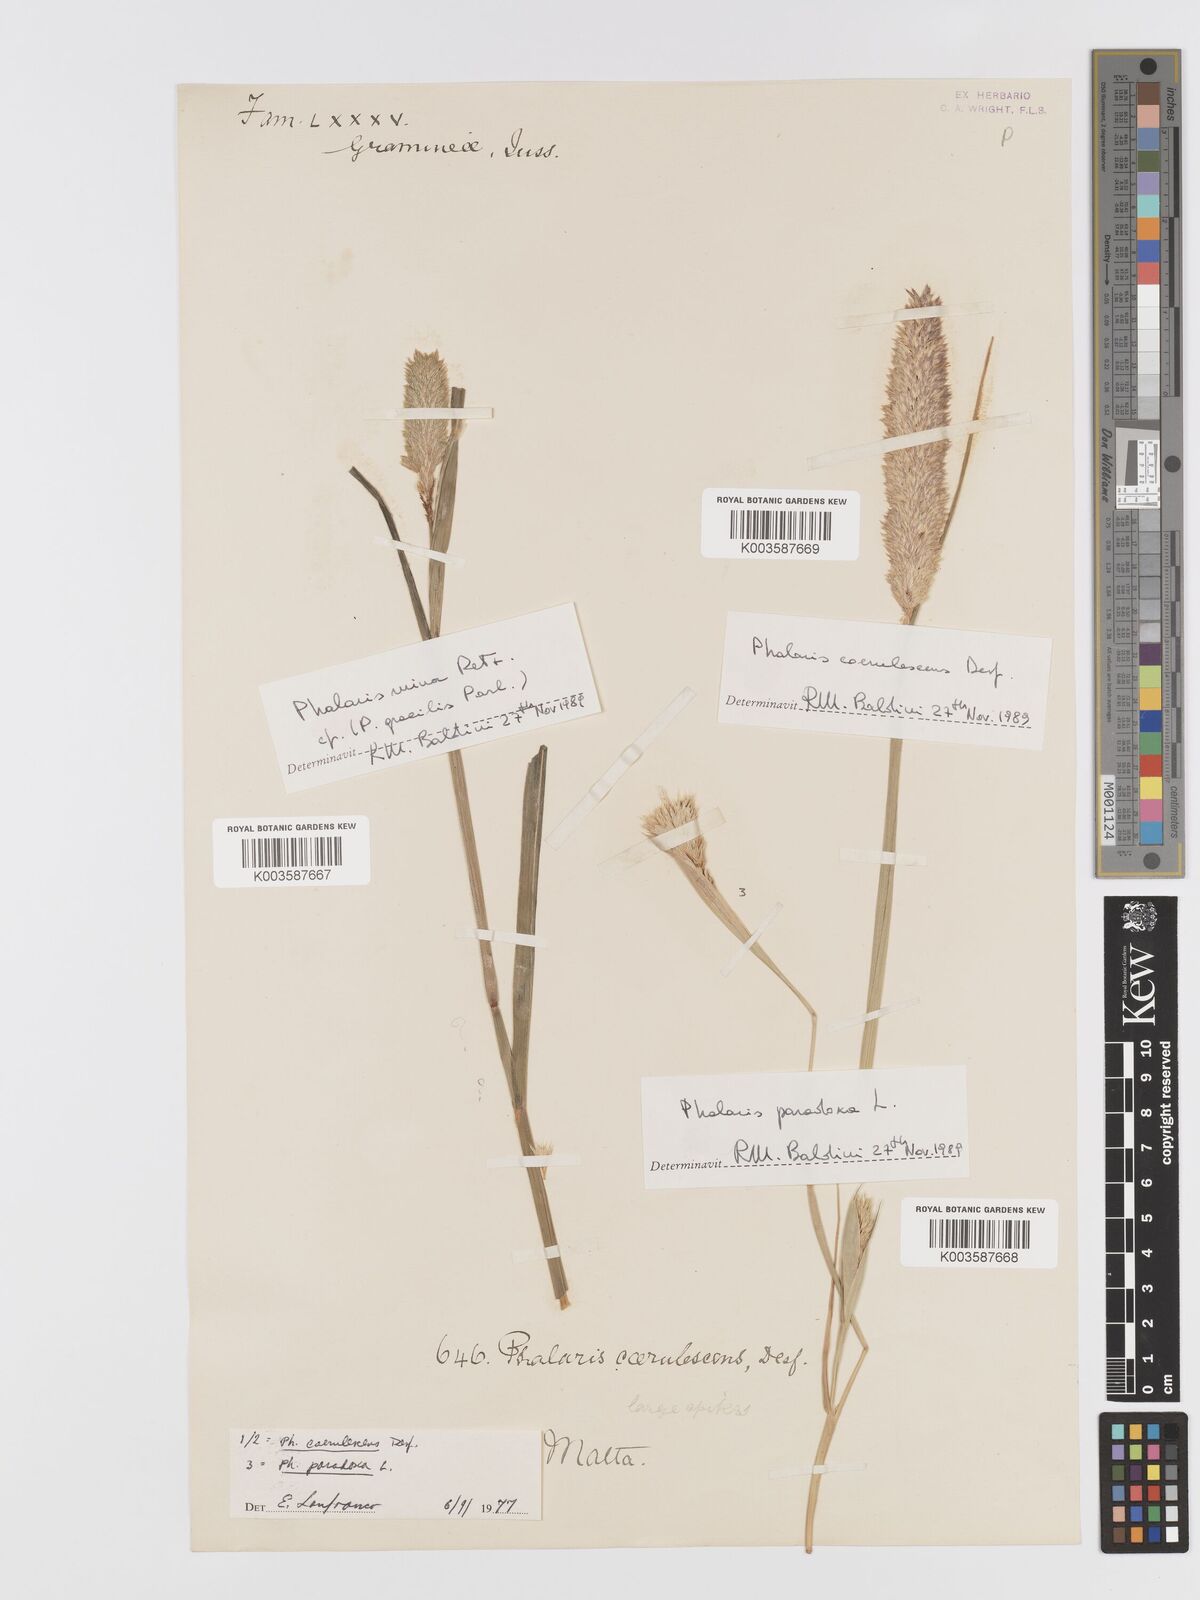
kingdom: Plantae
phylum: Tracheophyta
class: Liliopsida
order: Poales
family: Poaceae
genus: Phalaris
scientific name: Phalaris coerulescens
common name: Sunolgrass
